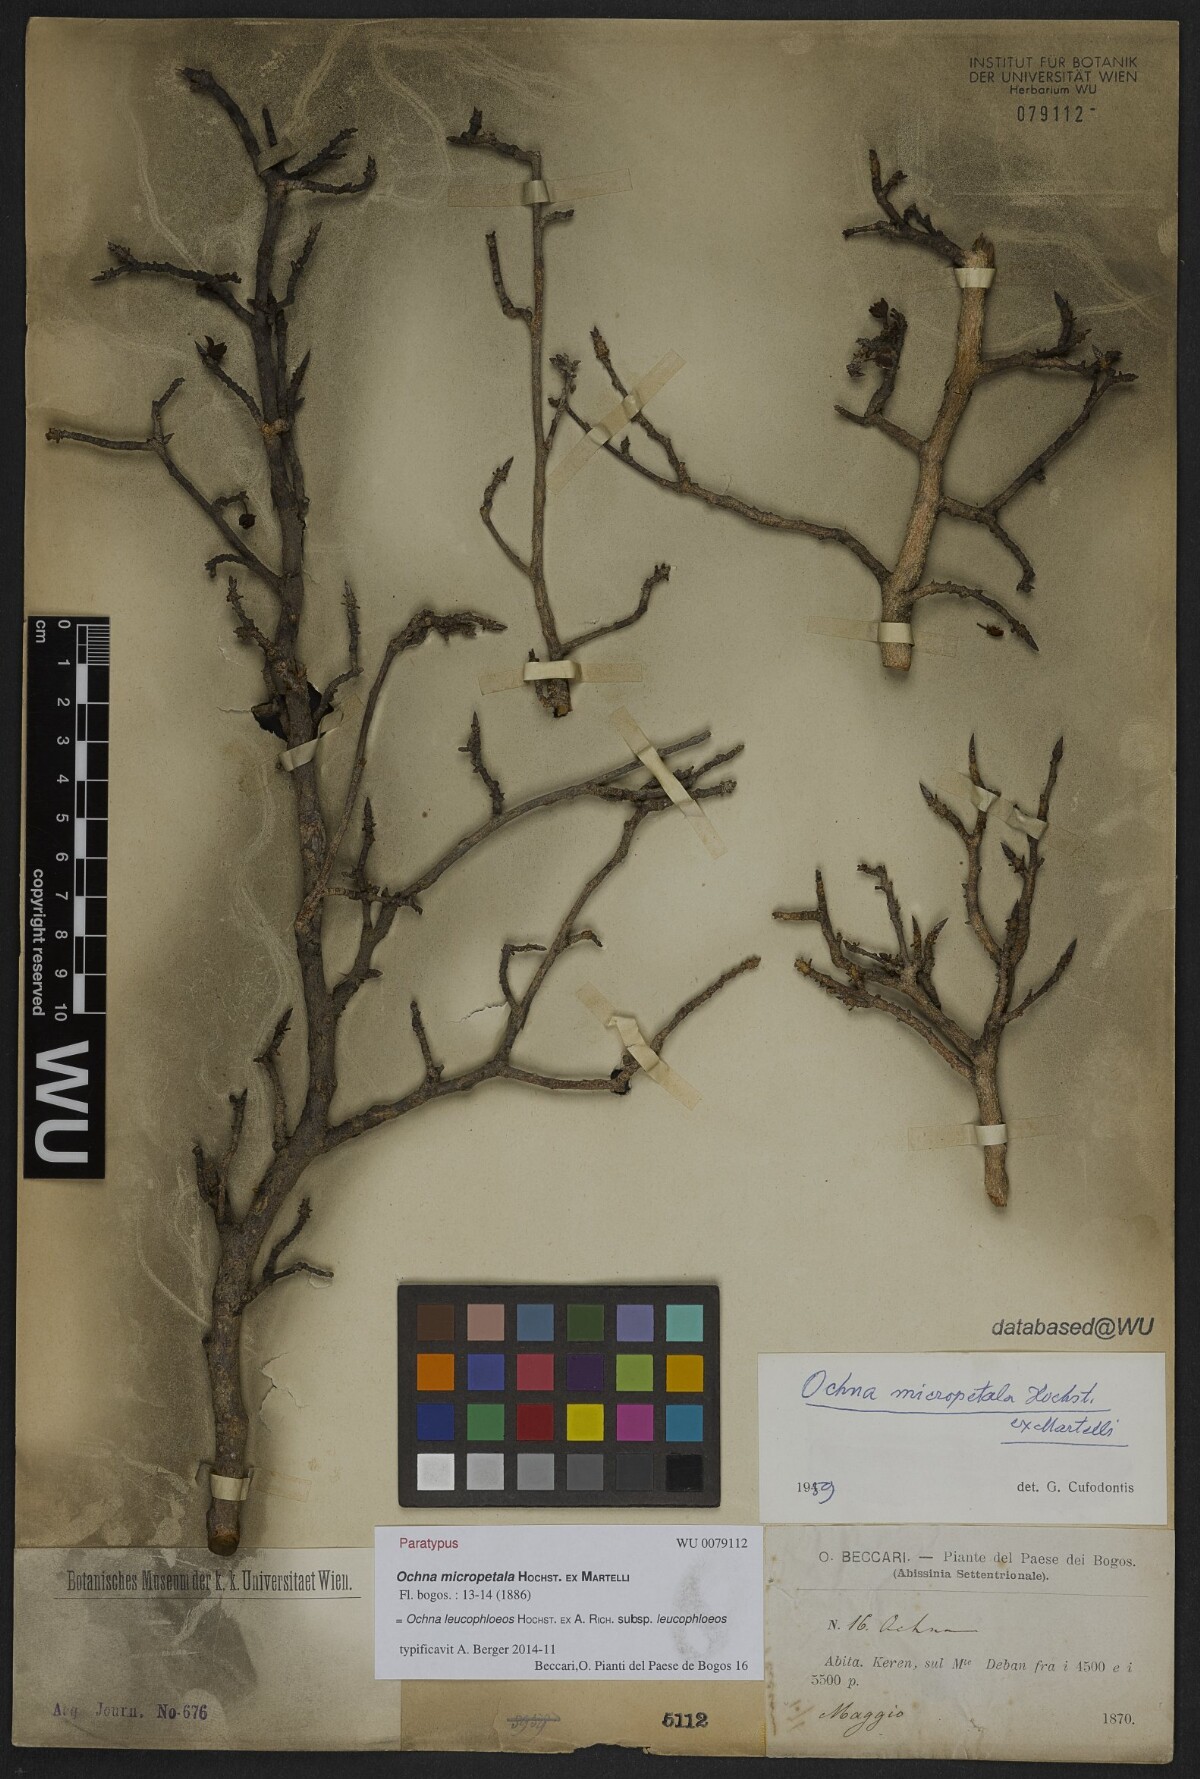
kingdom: Plantae
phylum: Tracheophyta
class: Magnoliopsida
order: Malpighiales
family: Ochnaceae
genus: Ochna
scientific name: Ochna leucophloeos
